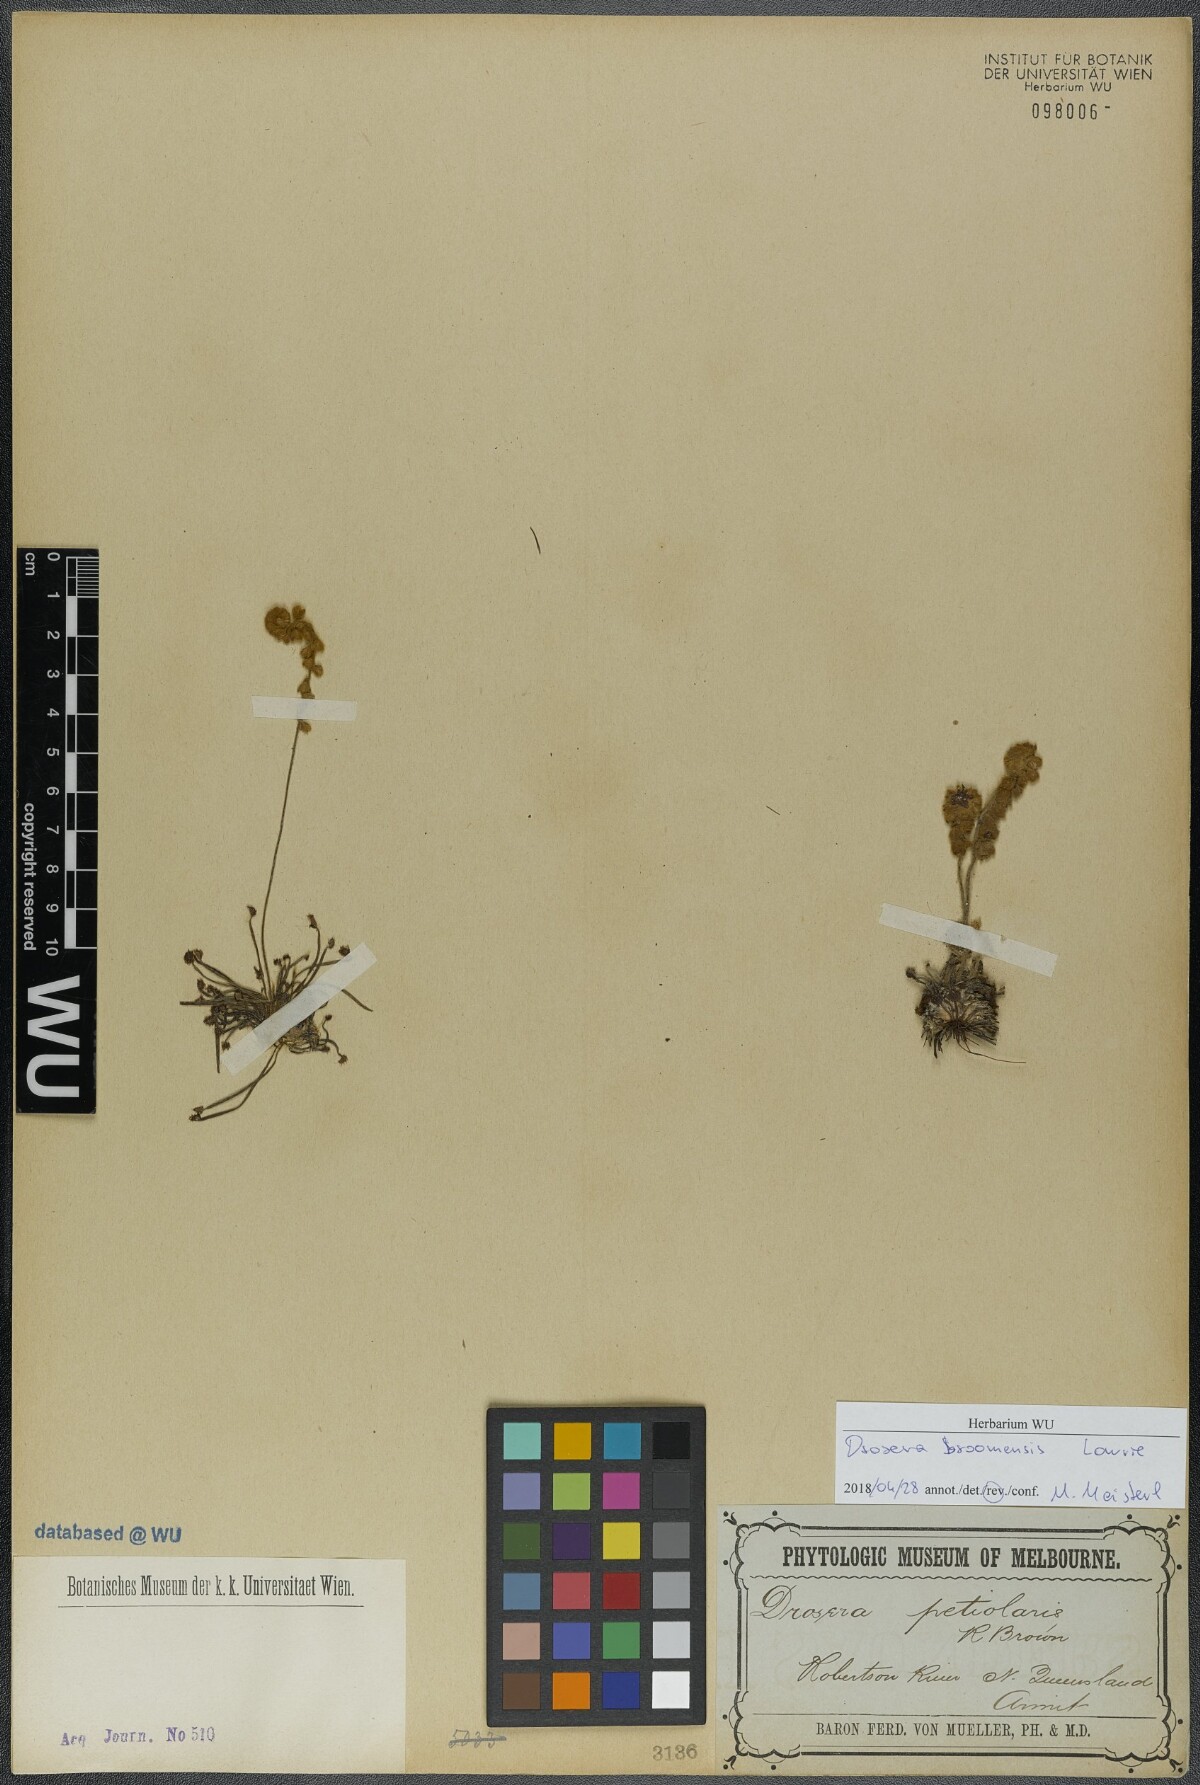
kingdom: Plantae
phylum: Tracheophyta
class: Magnoliopsida
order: Caryophyllales
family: Droseraceae
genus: Drosera
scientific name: Drosera broomensis
